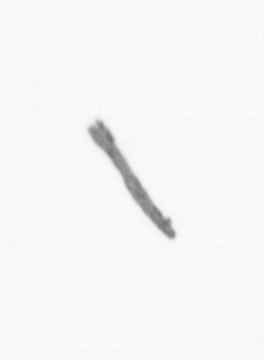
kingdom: Chromista
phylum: Ochrophyta
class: Bacillariophyceae
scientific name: Bacillariophyceae
